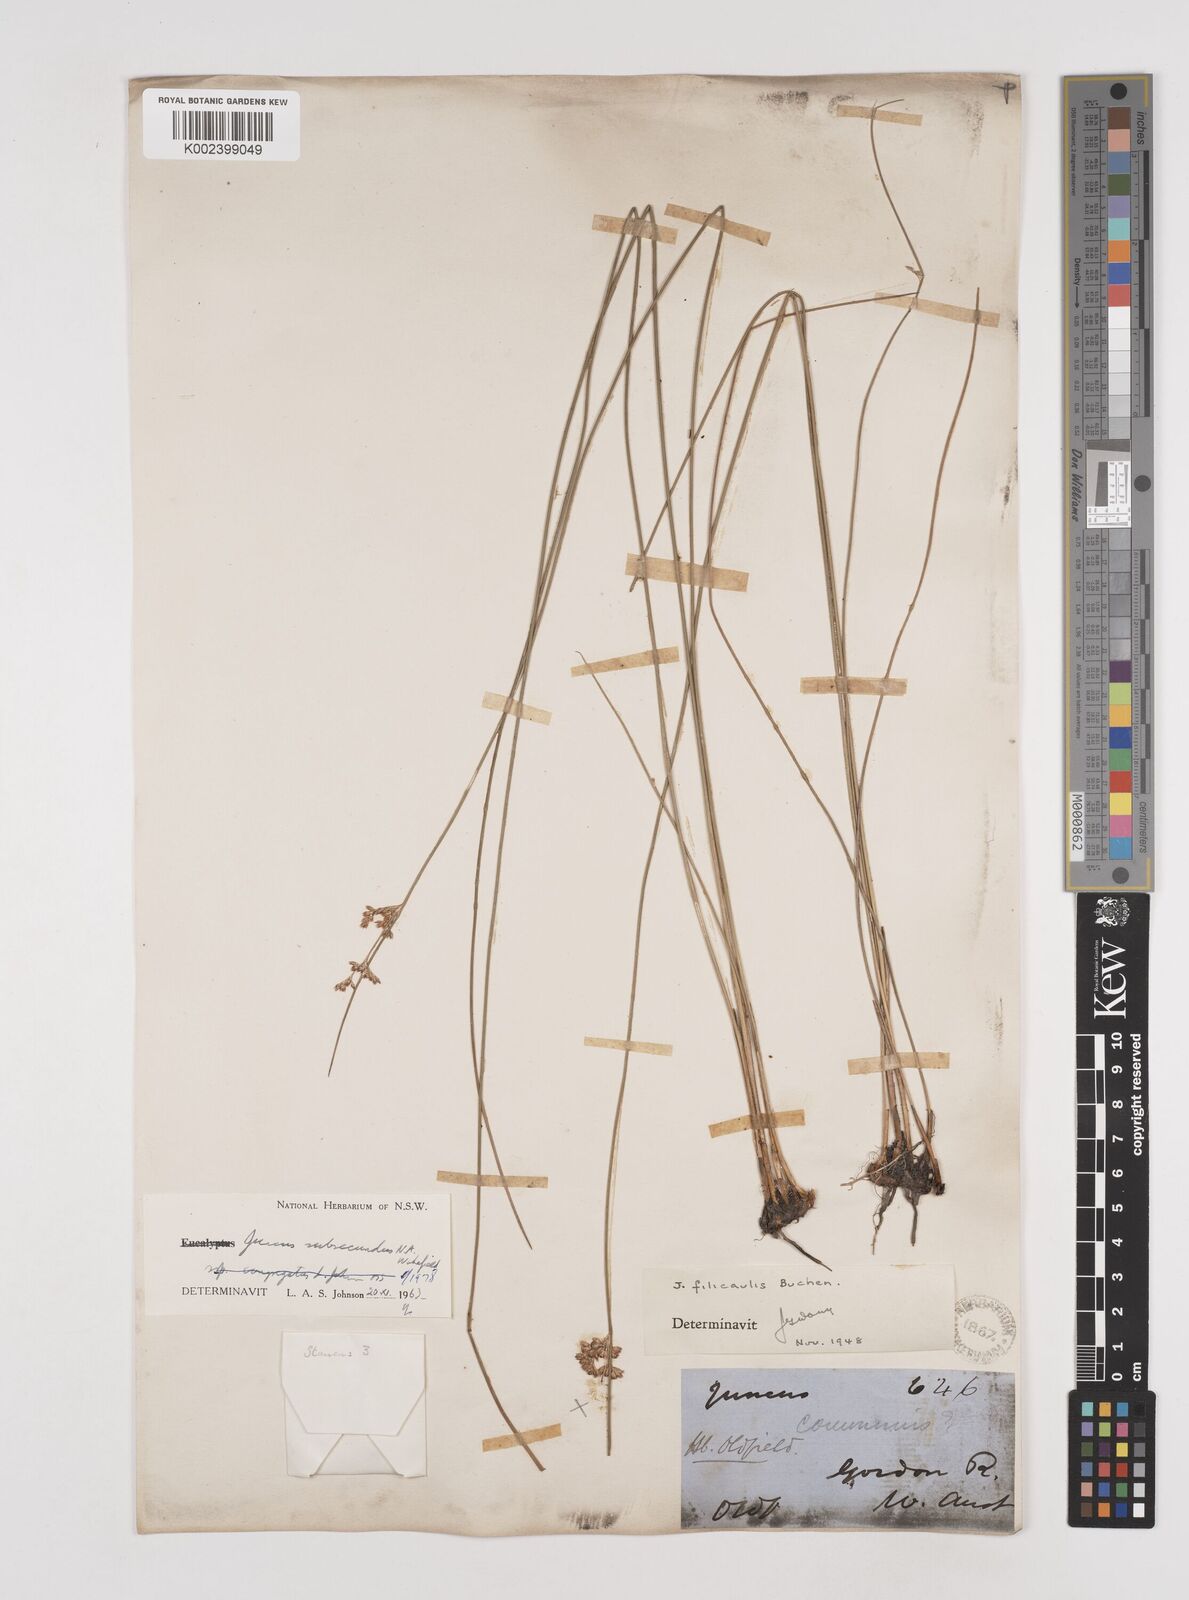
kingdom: Plantae
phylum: Tracheophyta
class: Liliopsida
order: Poales
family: Juncaceae
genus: Juncus
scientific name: Juncus subsecundus
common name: Fingered rush
